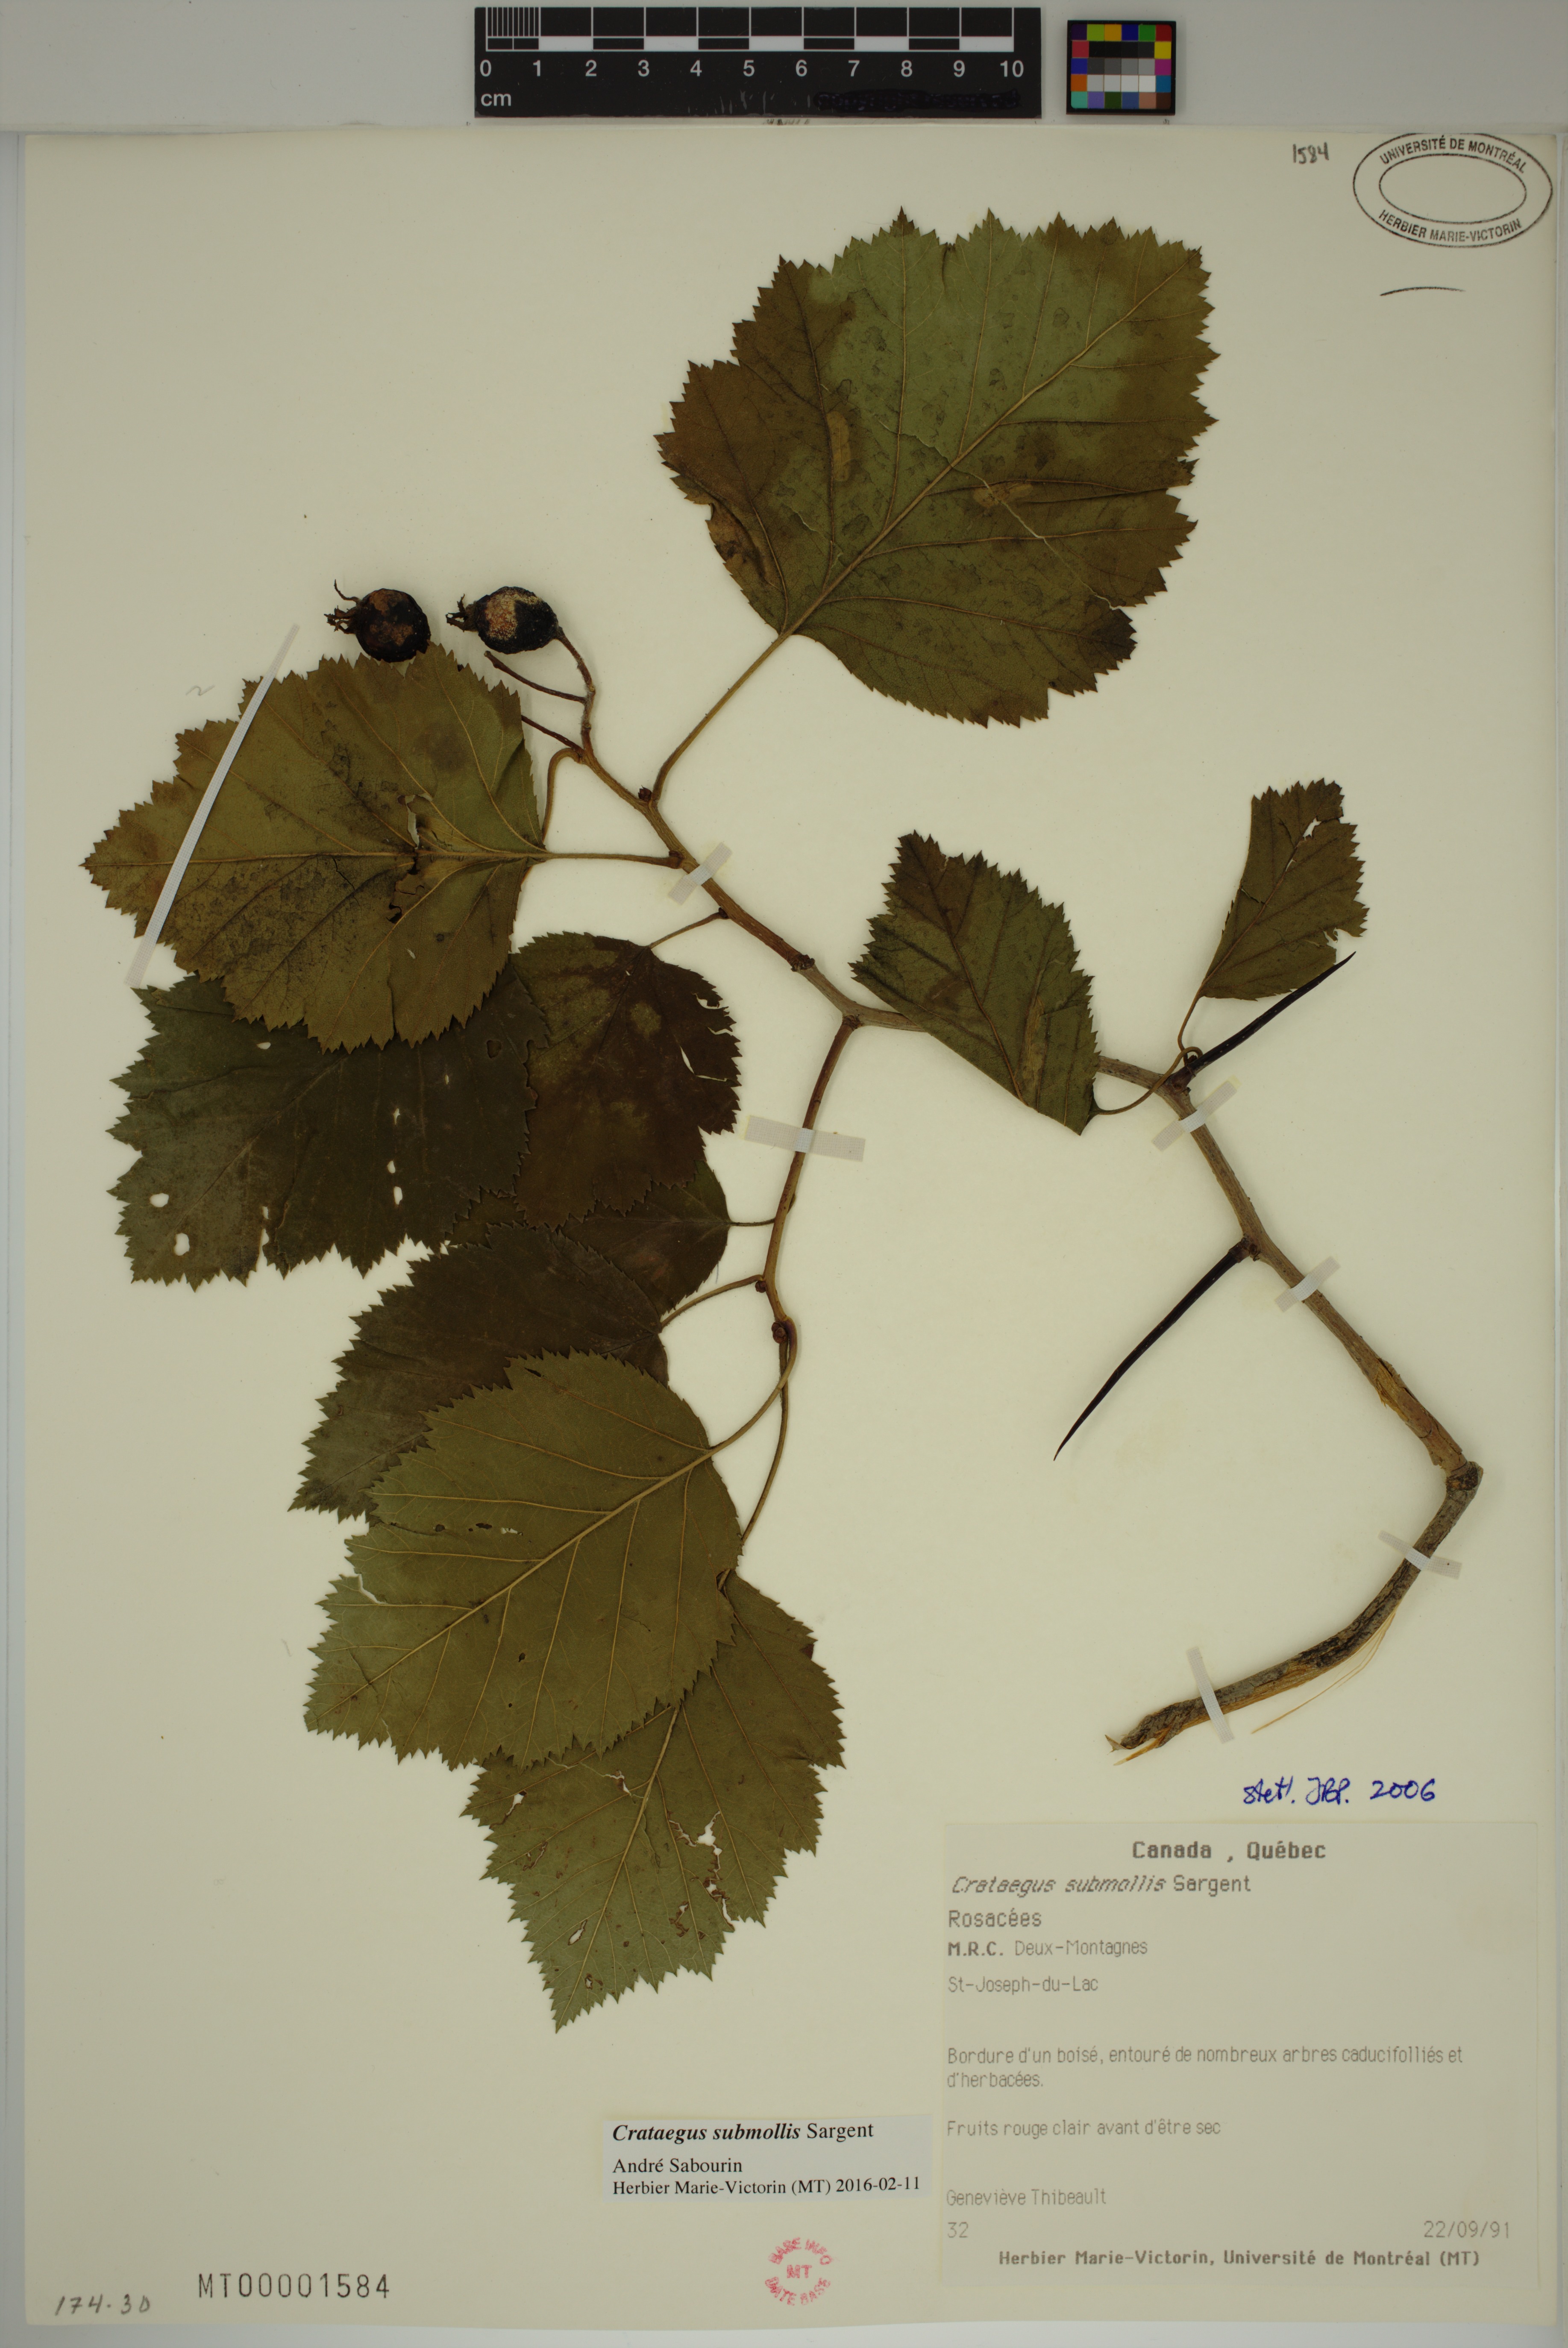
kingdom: Plantae
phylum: Tracheophyta
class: Magnoliopsida
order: Rosales
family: Rosaceae
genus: Crataegus
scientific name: Crataegus submollis
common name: Hairy cockspurthorn
